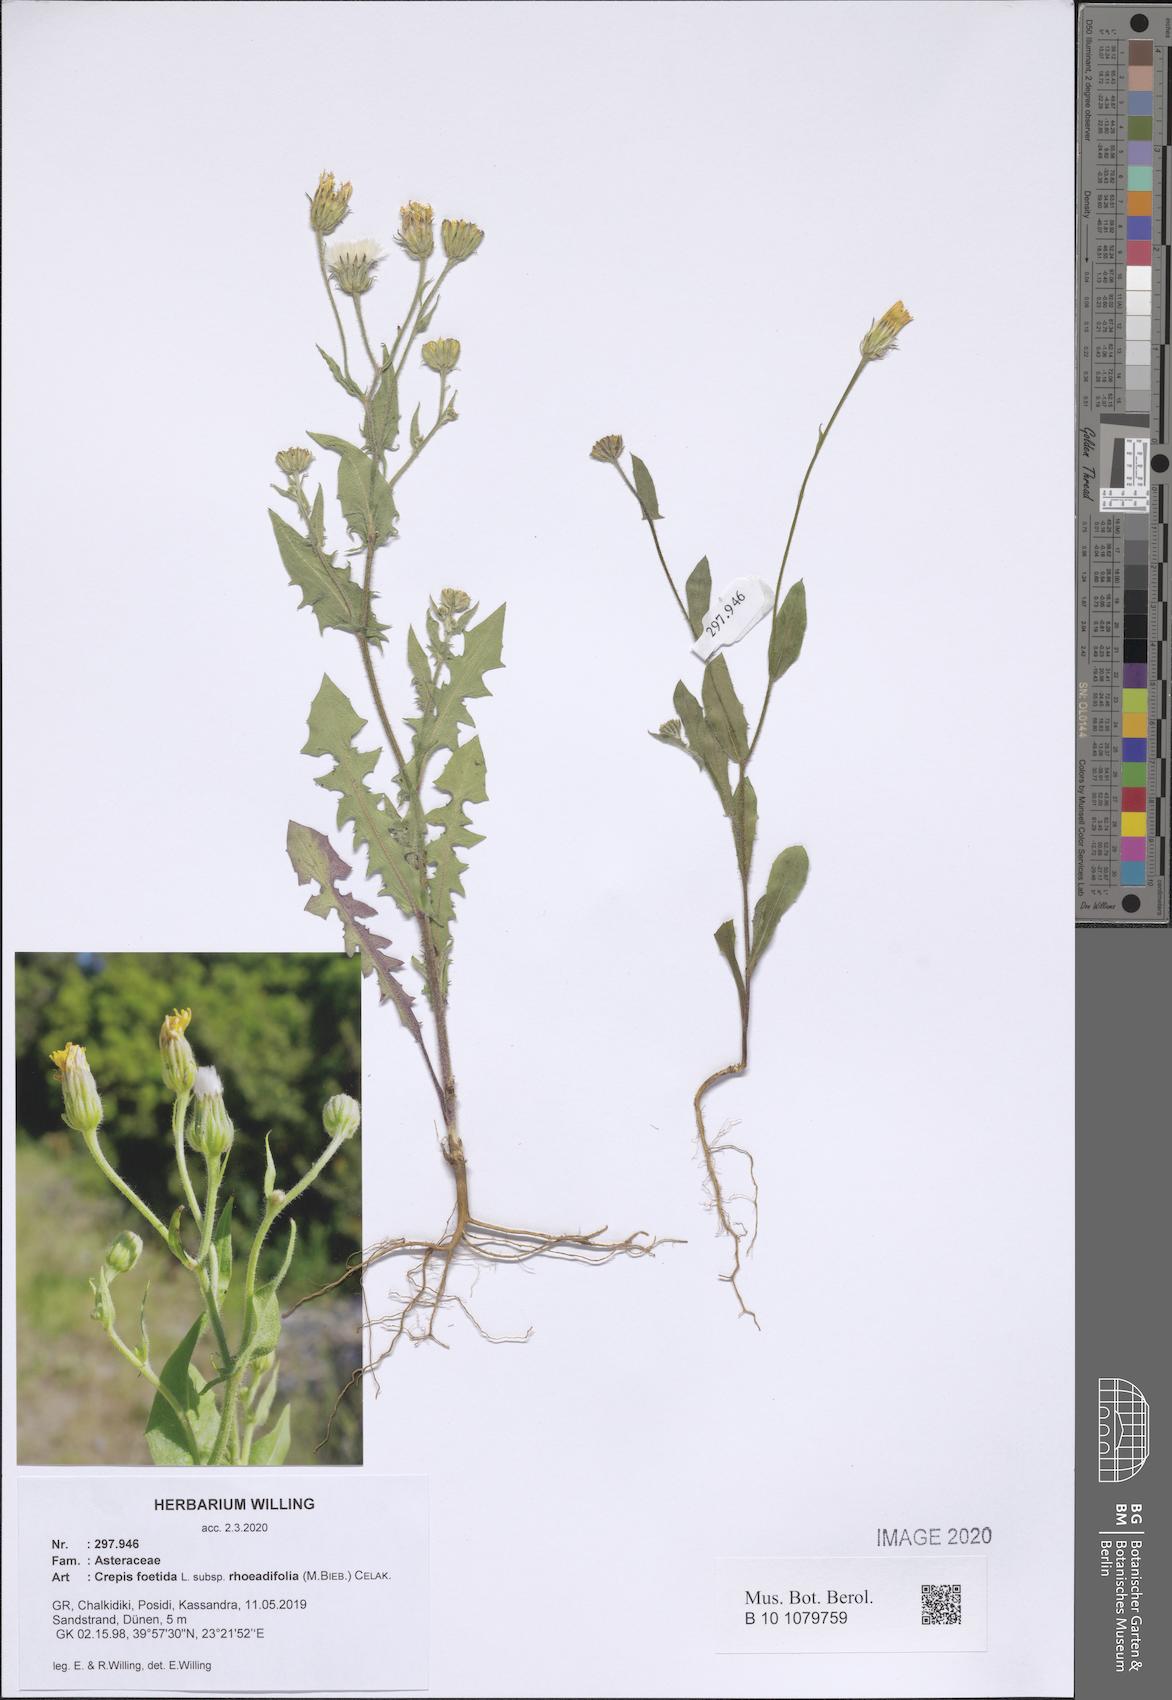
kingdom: Plantae
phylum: Tracheophyta
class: Magnoliopsida
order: Asterales
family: Asteraceae
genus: Crepis
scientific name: Crepis foetida
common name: Stinking hawk's-beard
